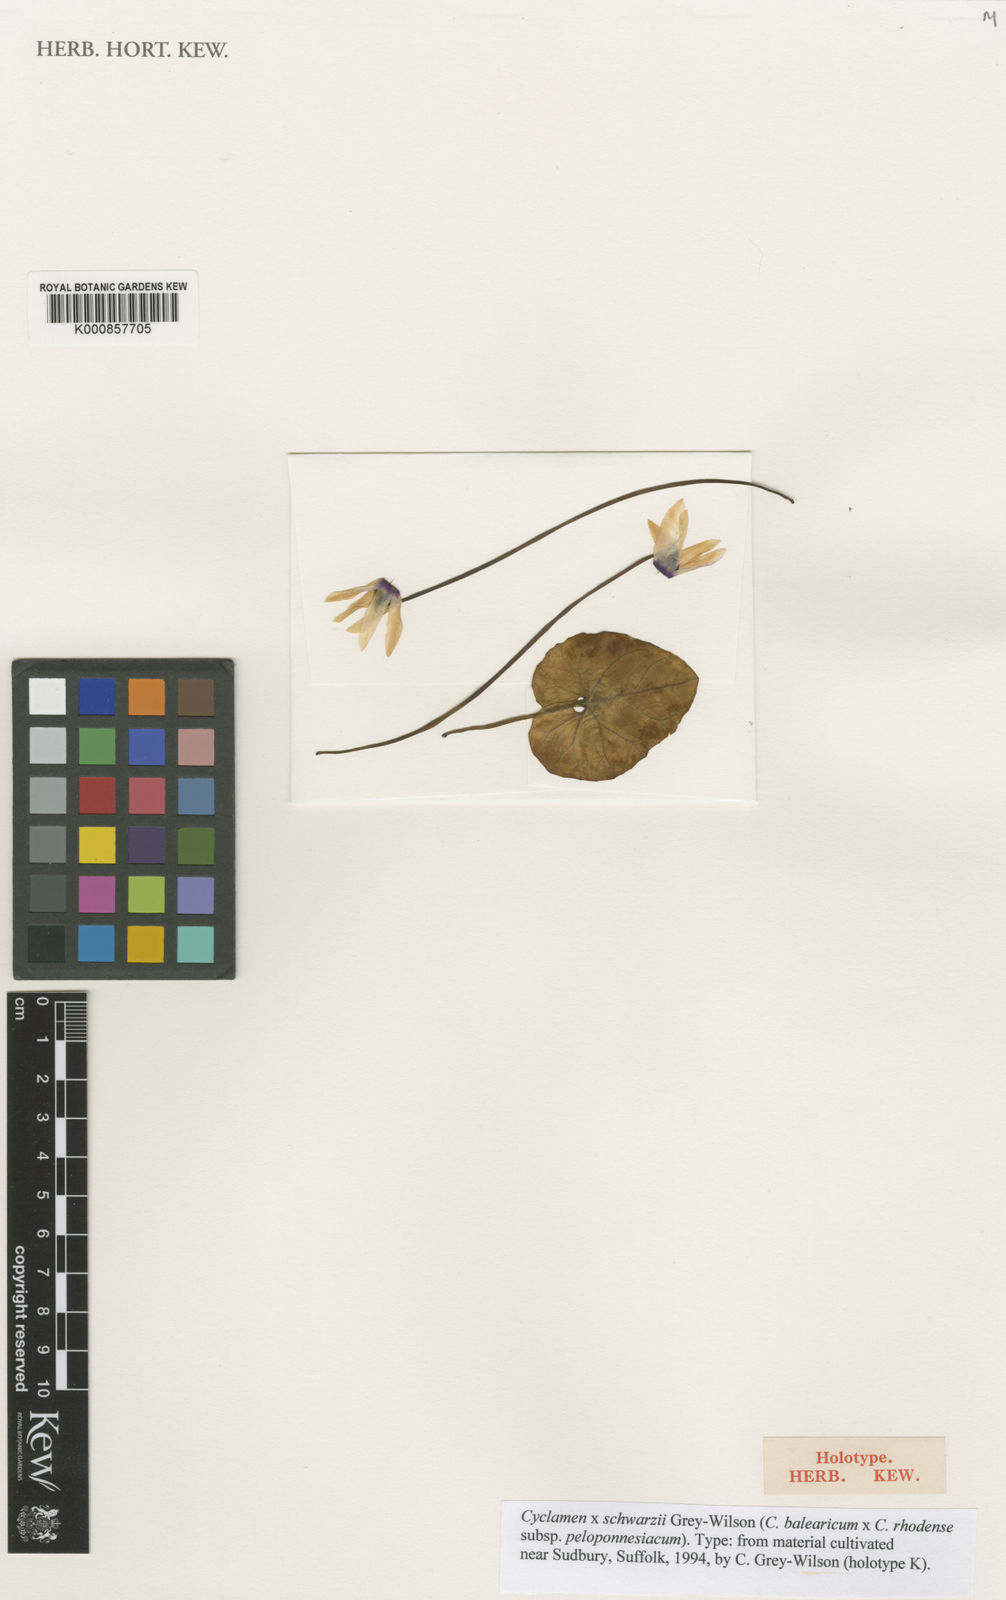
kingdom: Plantae
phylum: Tracheophyta
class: Magnoliopsida
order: Ericales
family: Primulaceae
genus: Cyclamen
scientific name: Cyclamen schwarzii
